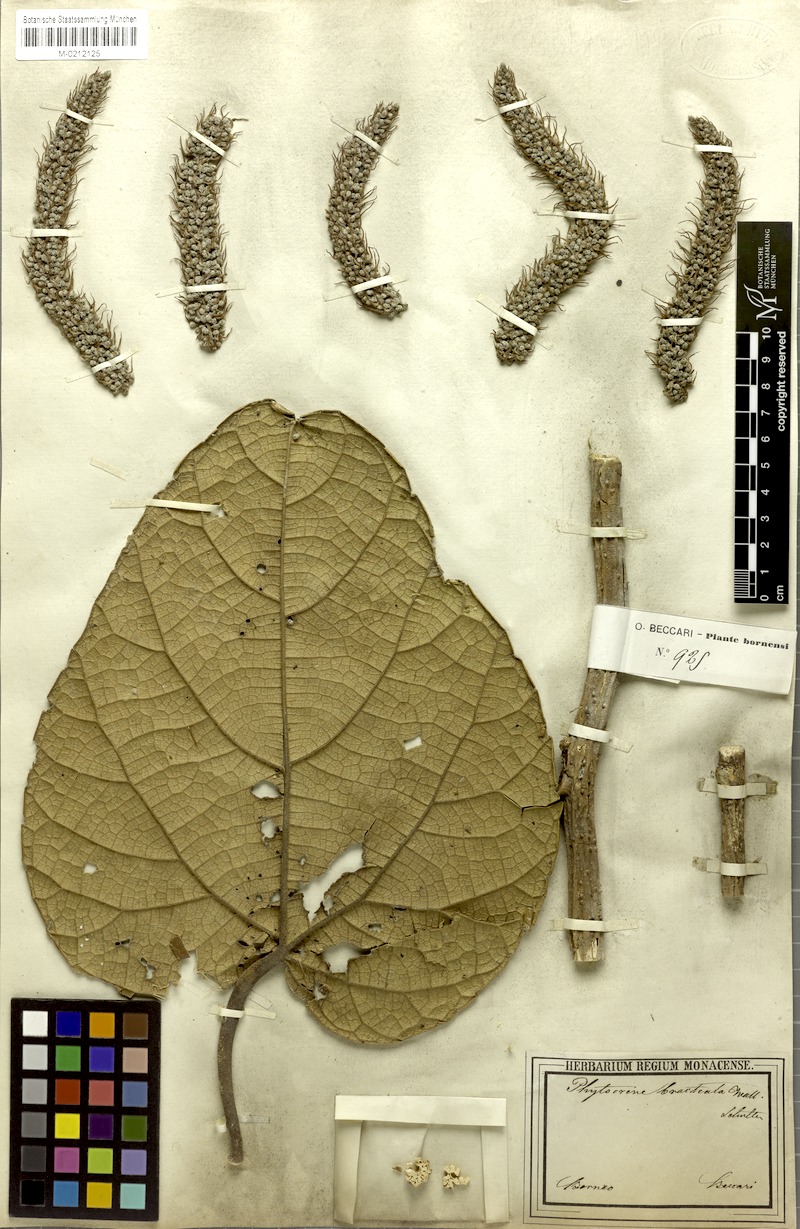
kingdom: Plantae
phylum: Tracheophyta
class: Magnoliopsida
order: Icacinales
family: Icacinaceae
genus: Phytocrene
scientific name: Phytocrene bracteata
